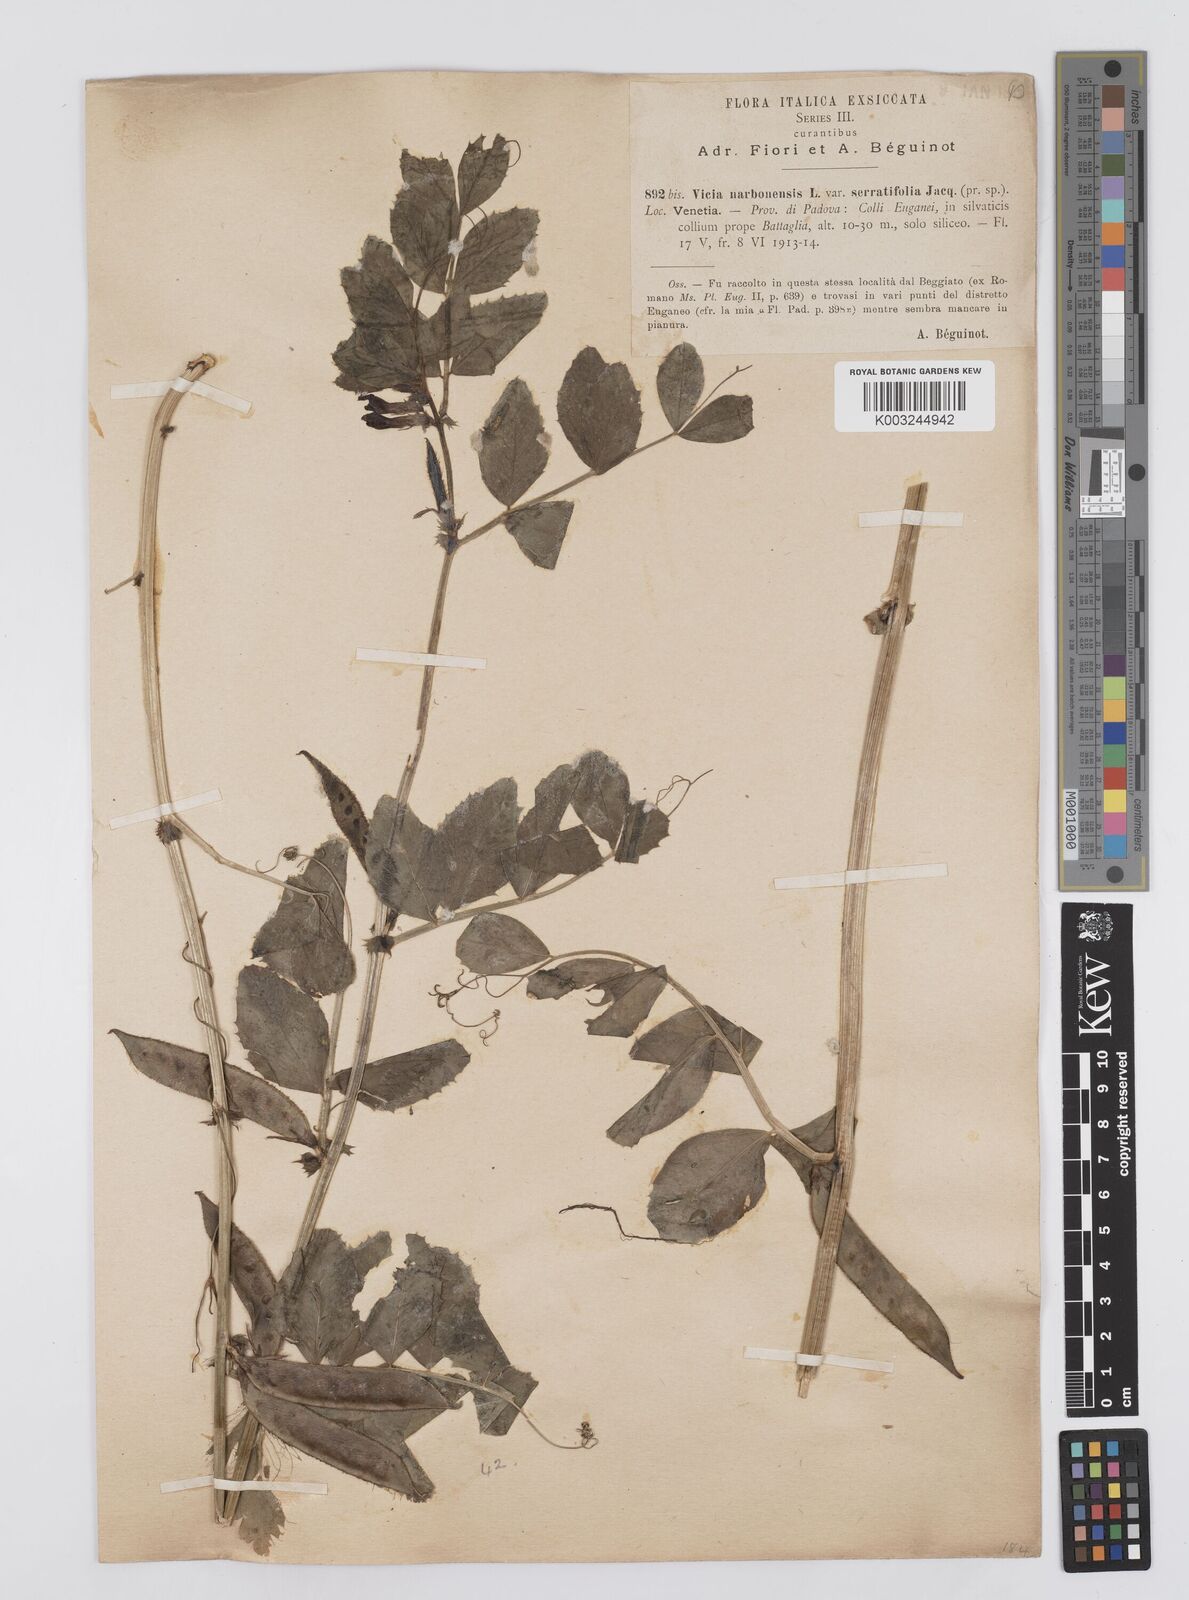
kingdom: Plantae
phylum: Tracheophyta
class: Magnoliopsida
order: Fabales
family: Fabaceae
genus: Vicia
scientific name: Vicia serratifolia
